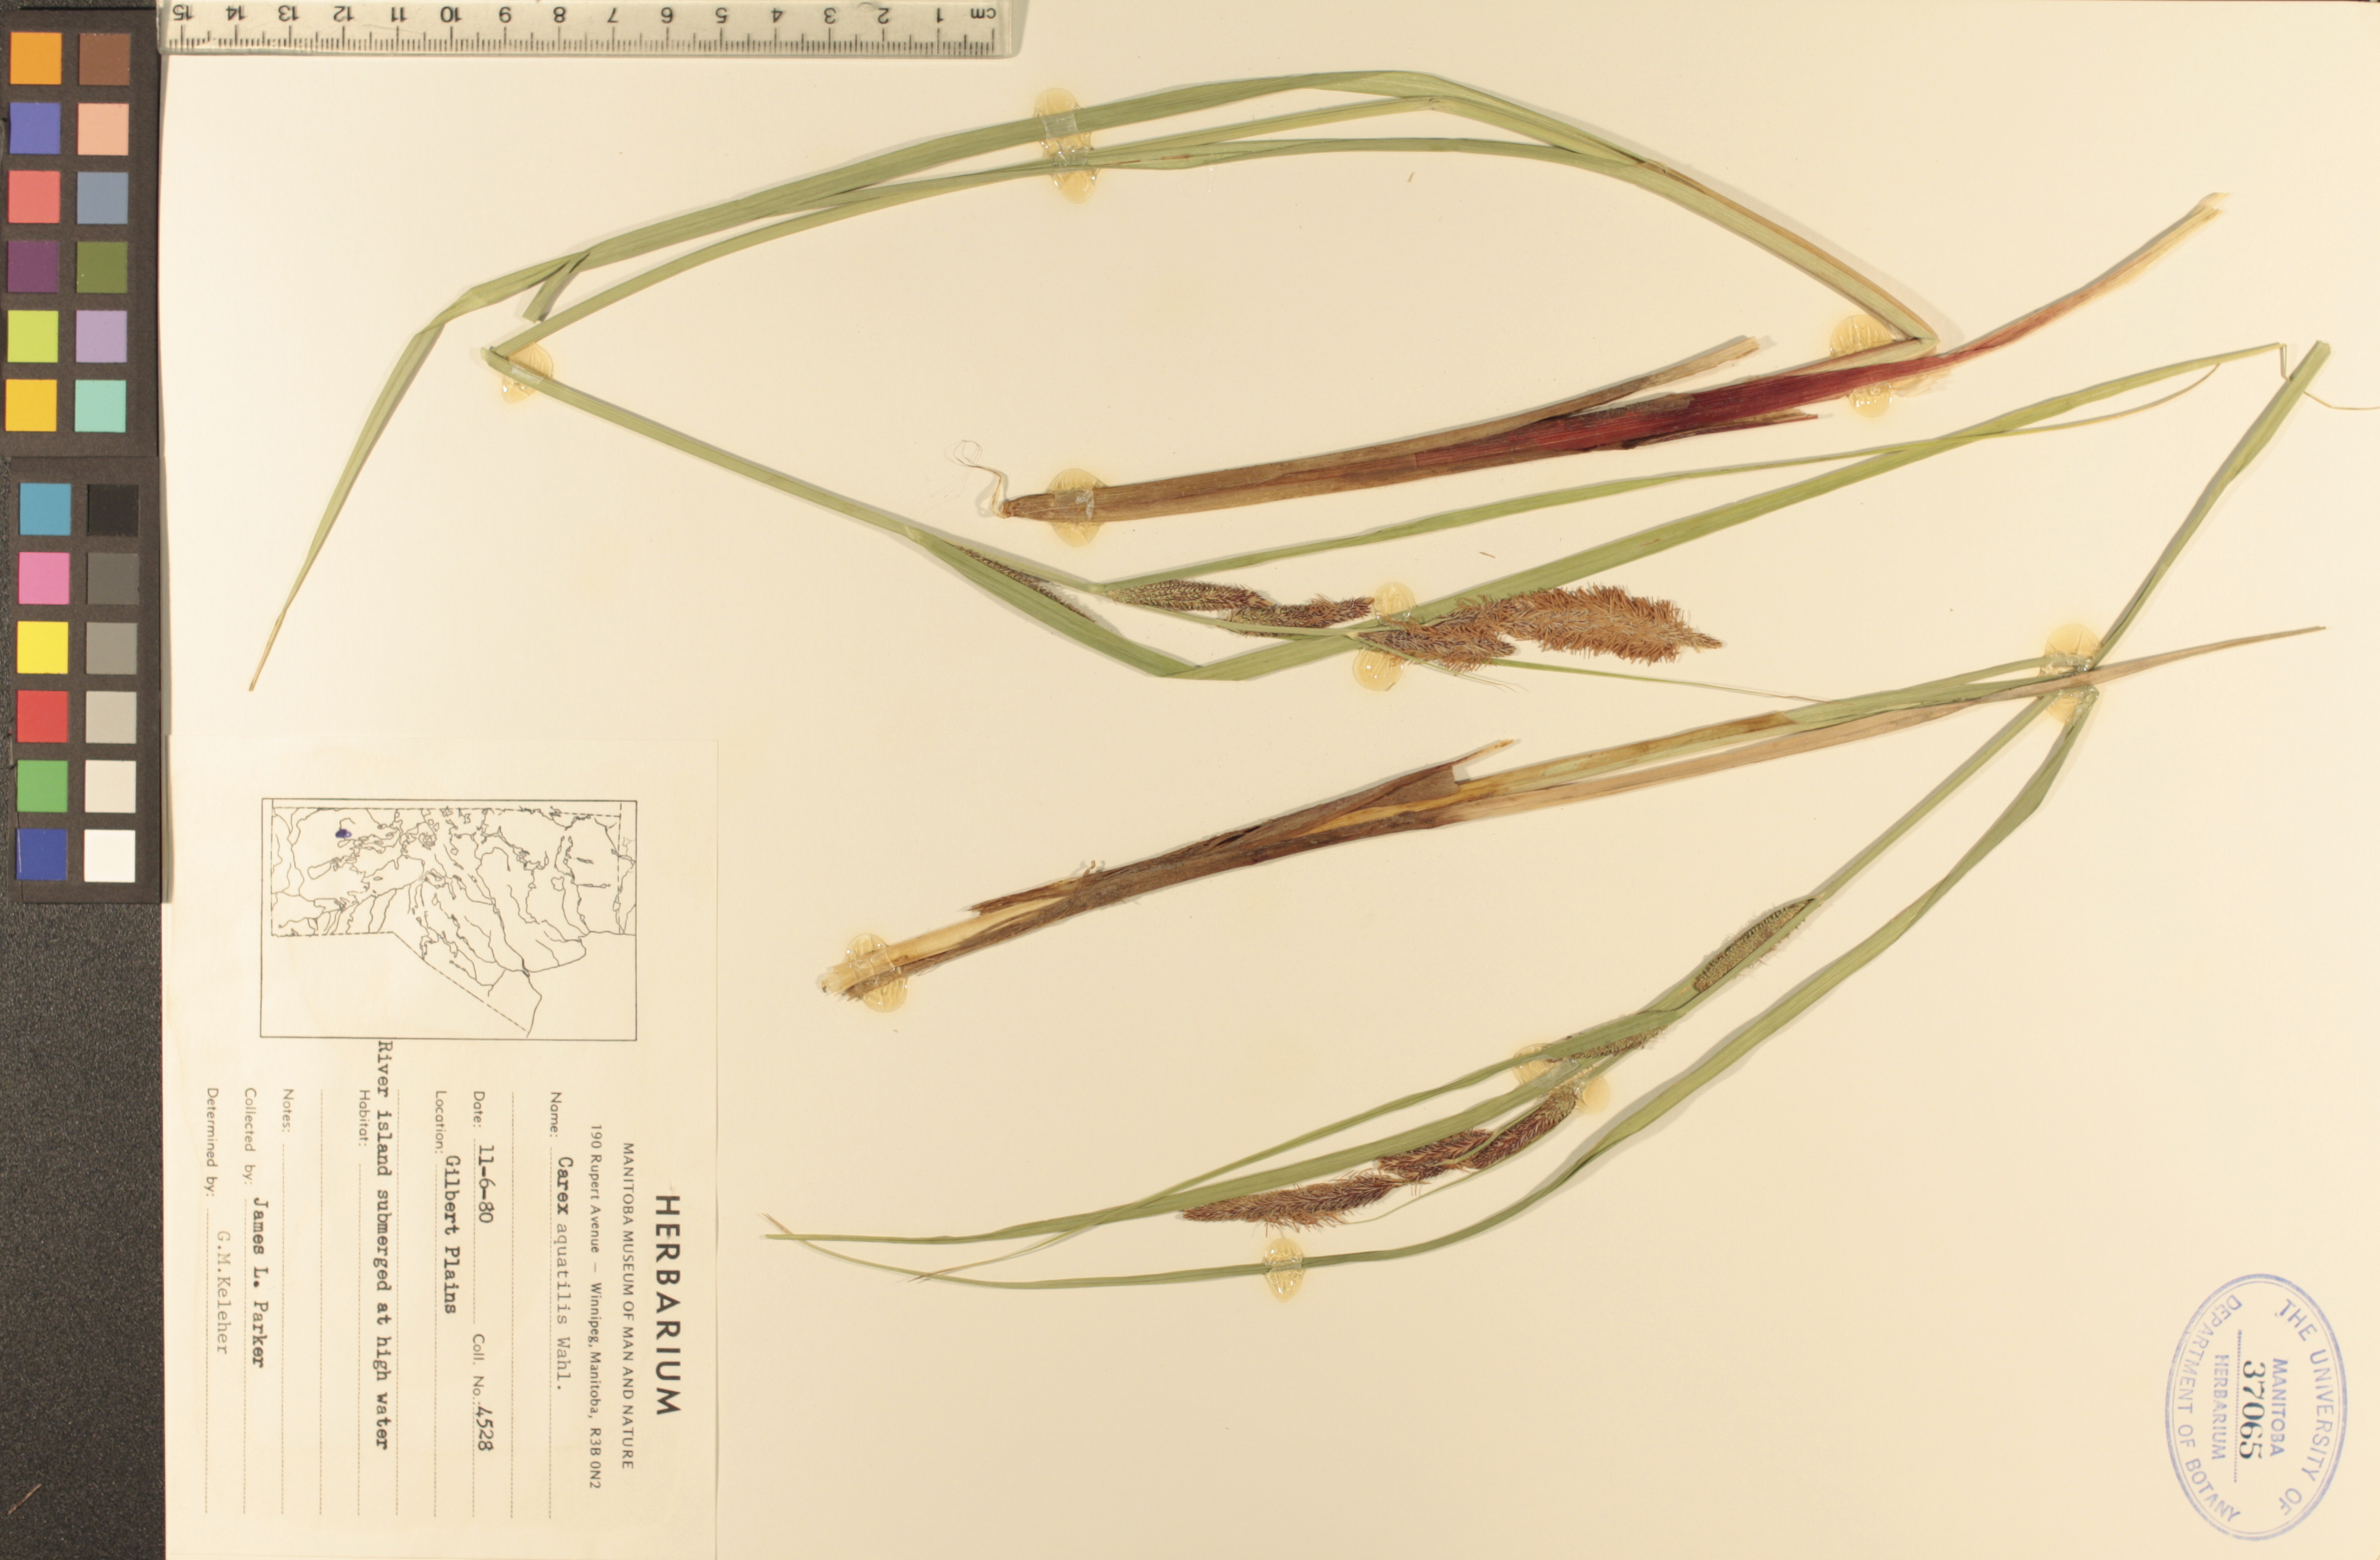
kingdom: Plantae
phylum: Tracheophyta
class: Liliopsida
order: Poales
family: Cyperaceae
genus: Carex
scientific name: Carex aquatilis
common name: Water sedge
